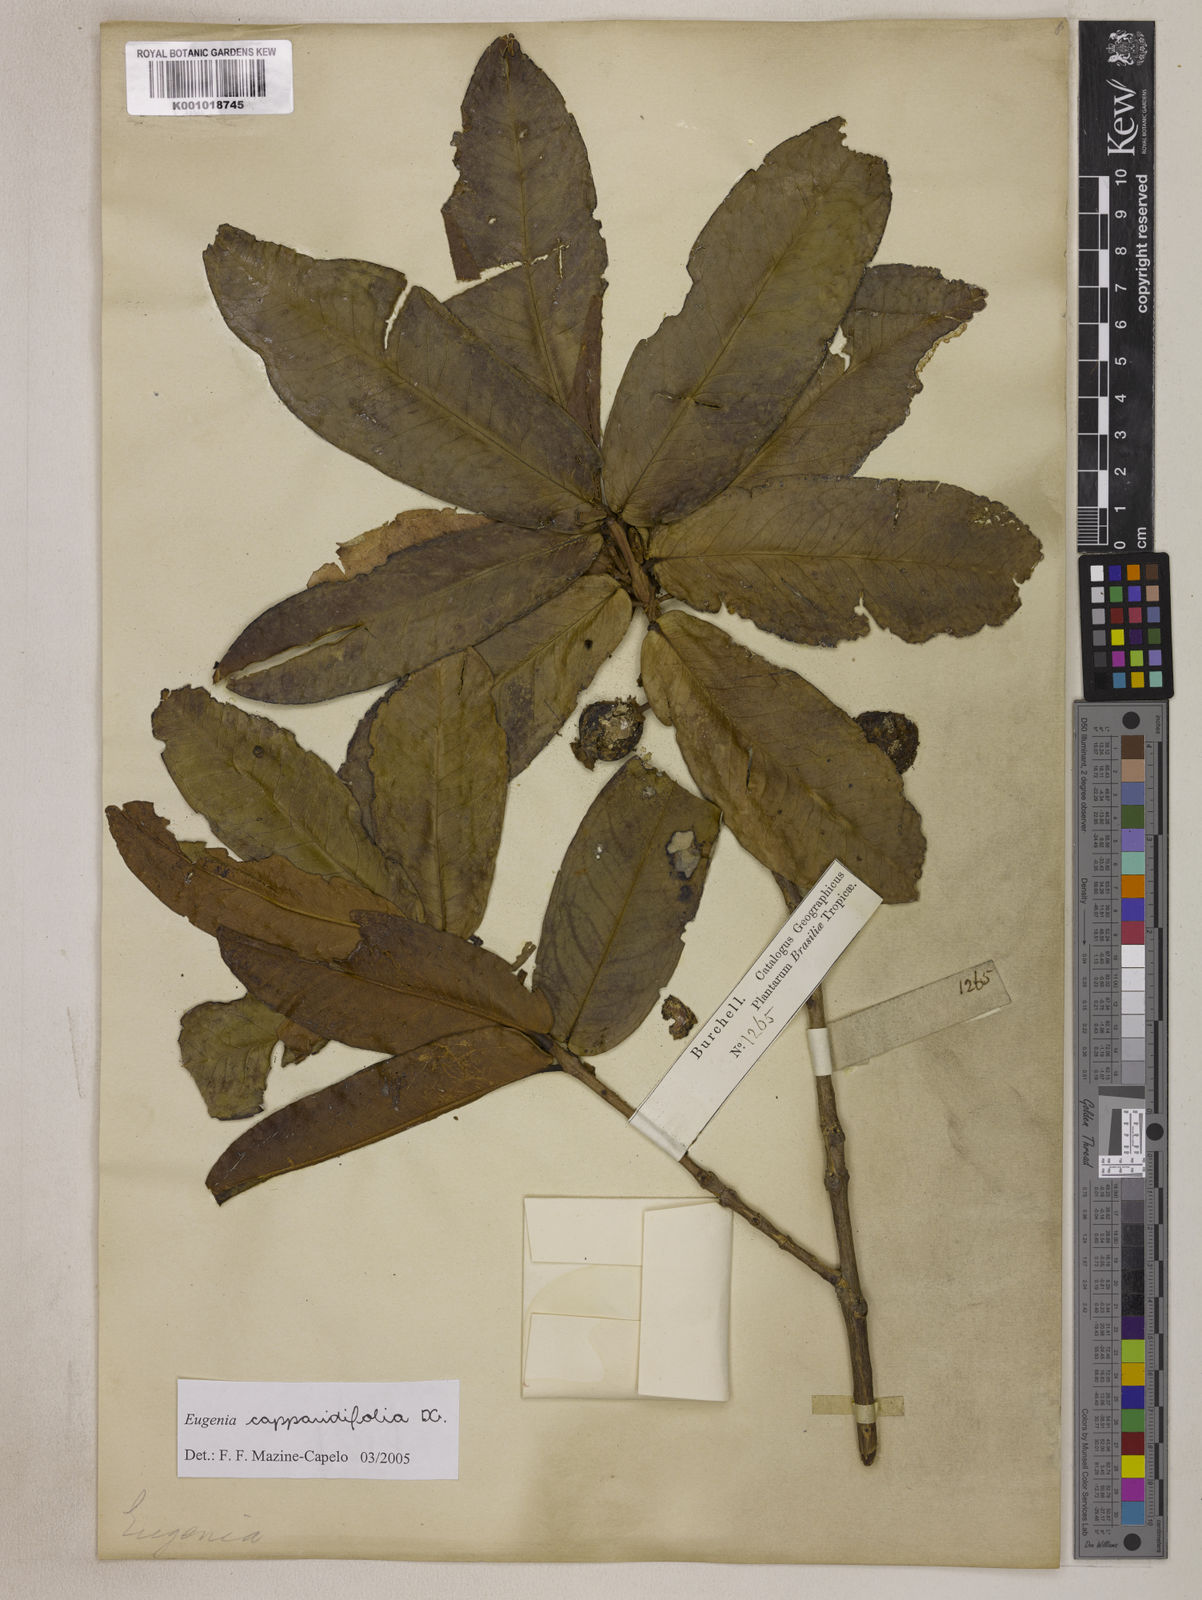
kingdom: Plantae
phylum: Tracheophyta
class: Magnoliopsida
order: Myrtales
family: Myrtaceae
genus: Eugenia
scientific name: Eugenia capparidifolia
